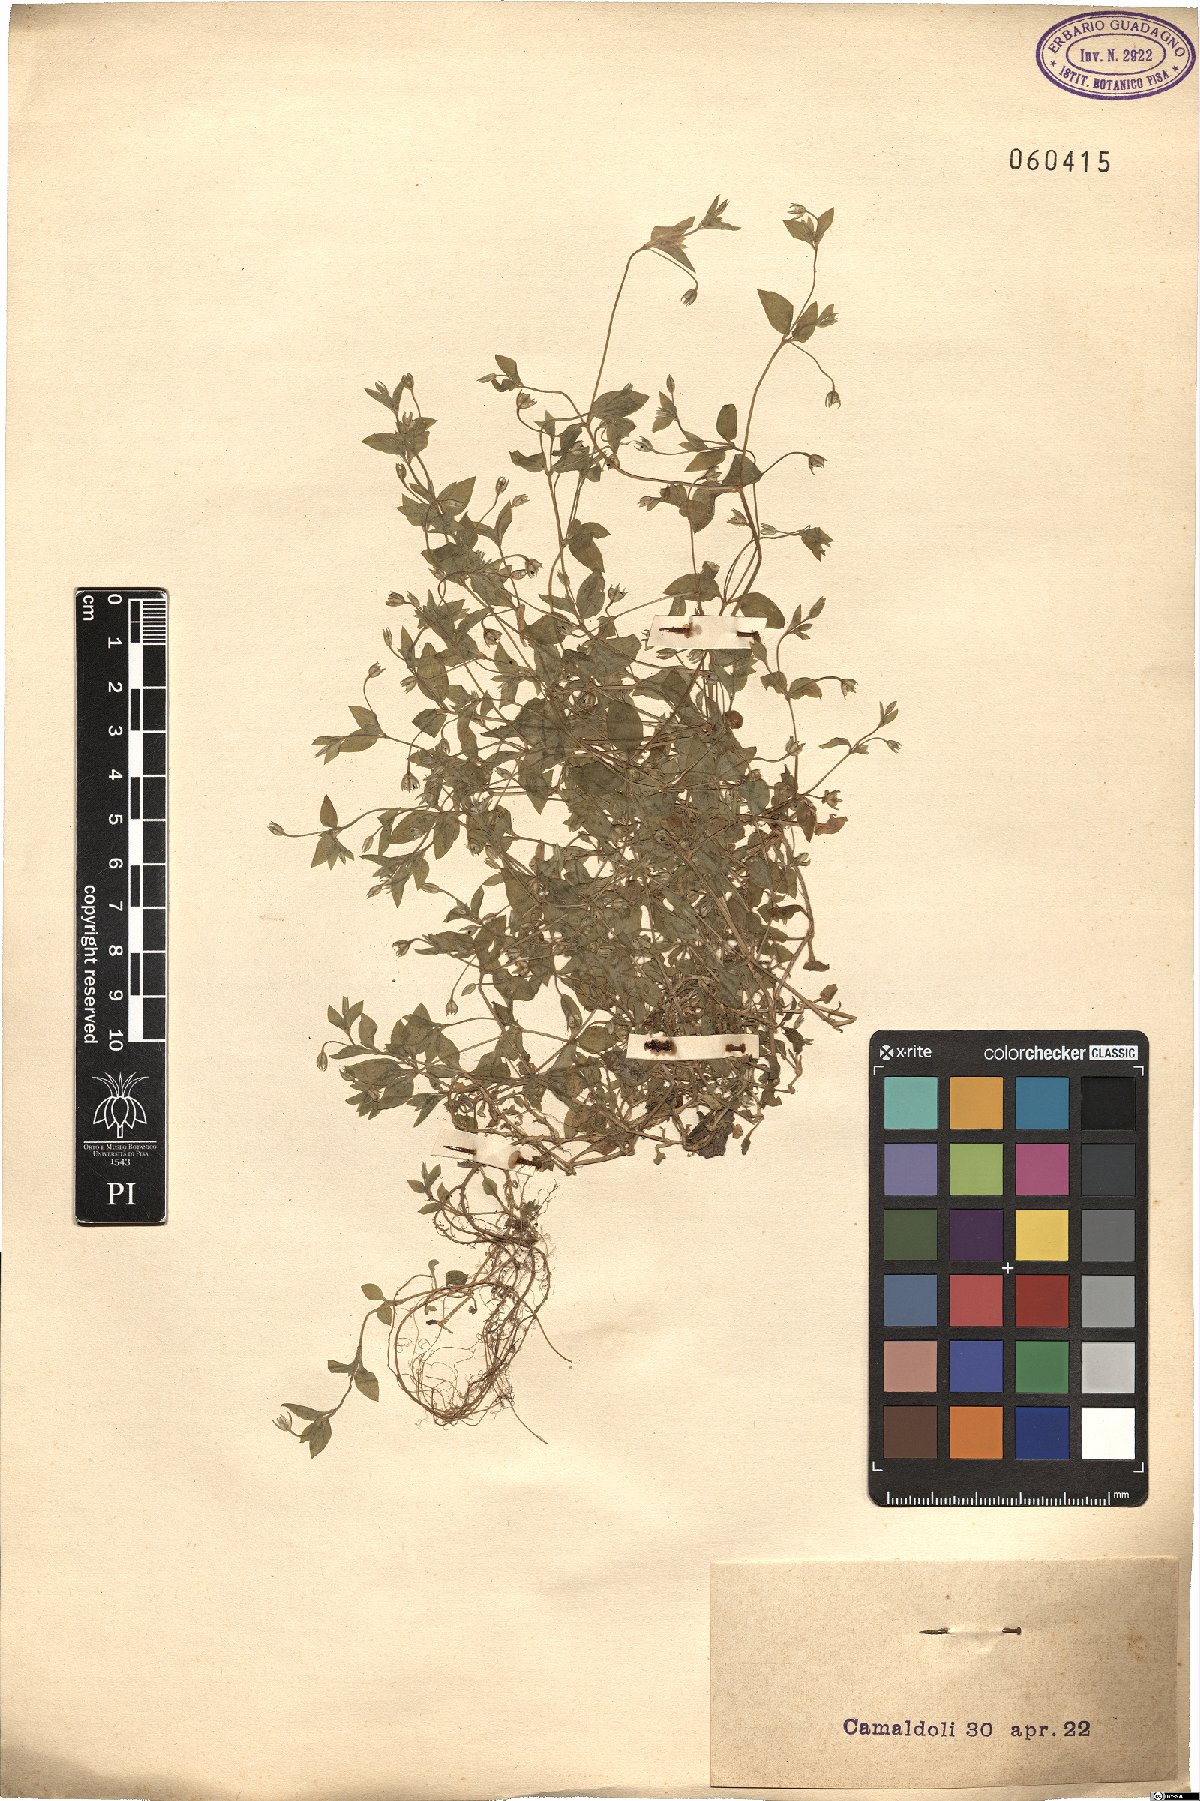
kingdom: Plantae
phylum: Tracheophyta
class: Magnoliopsida
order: Caryophyllales
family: Caryophyllaceae
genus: Stellaria
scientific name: Stellaria cupaniana
